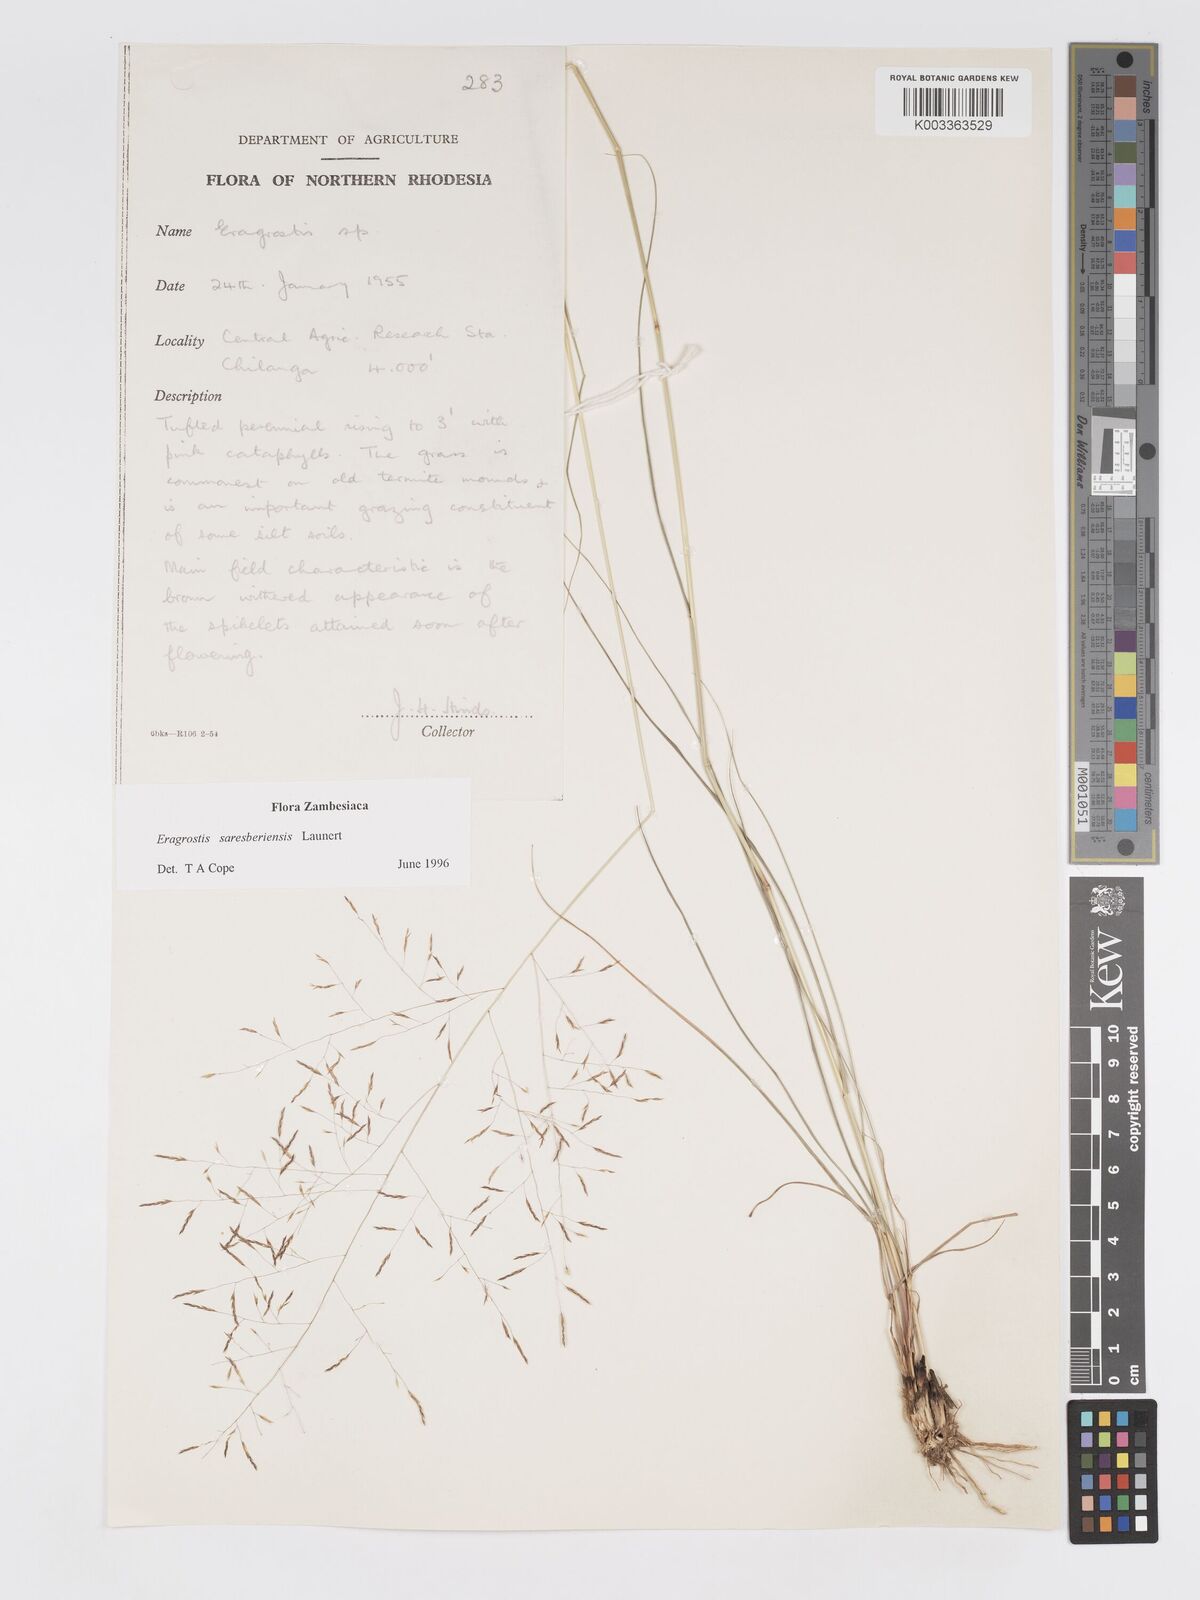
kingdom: Plantae
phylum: Tracheophyta
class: Liliopsida
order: Poales
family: Poaceae
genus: Eragrostis
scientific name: Eragrostis saresberiensis
